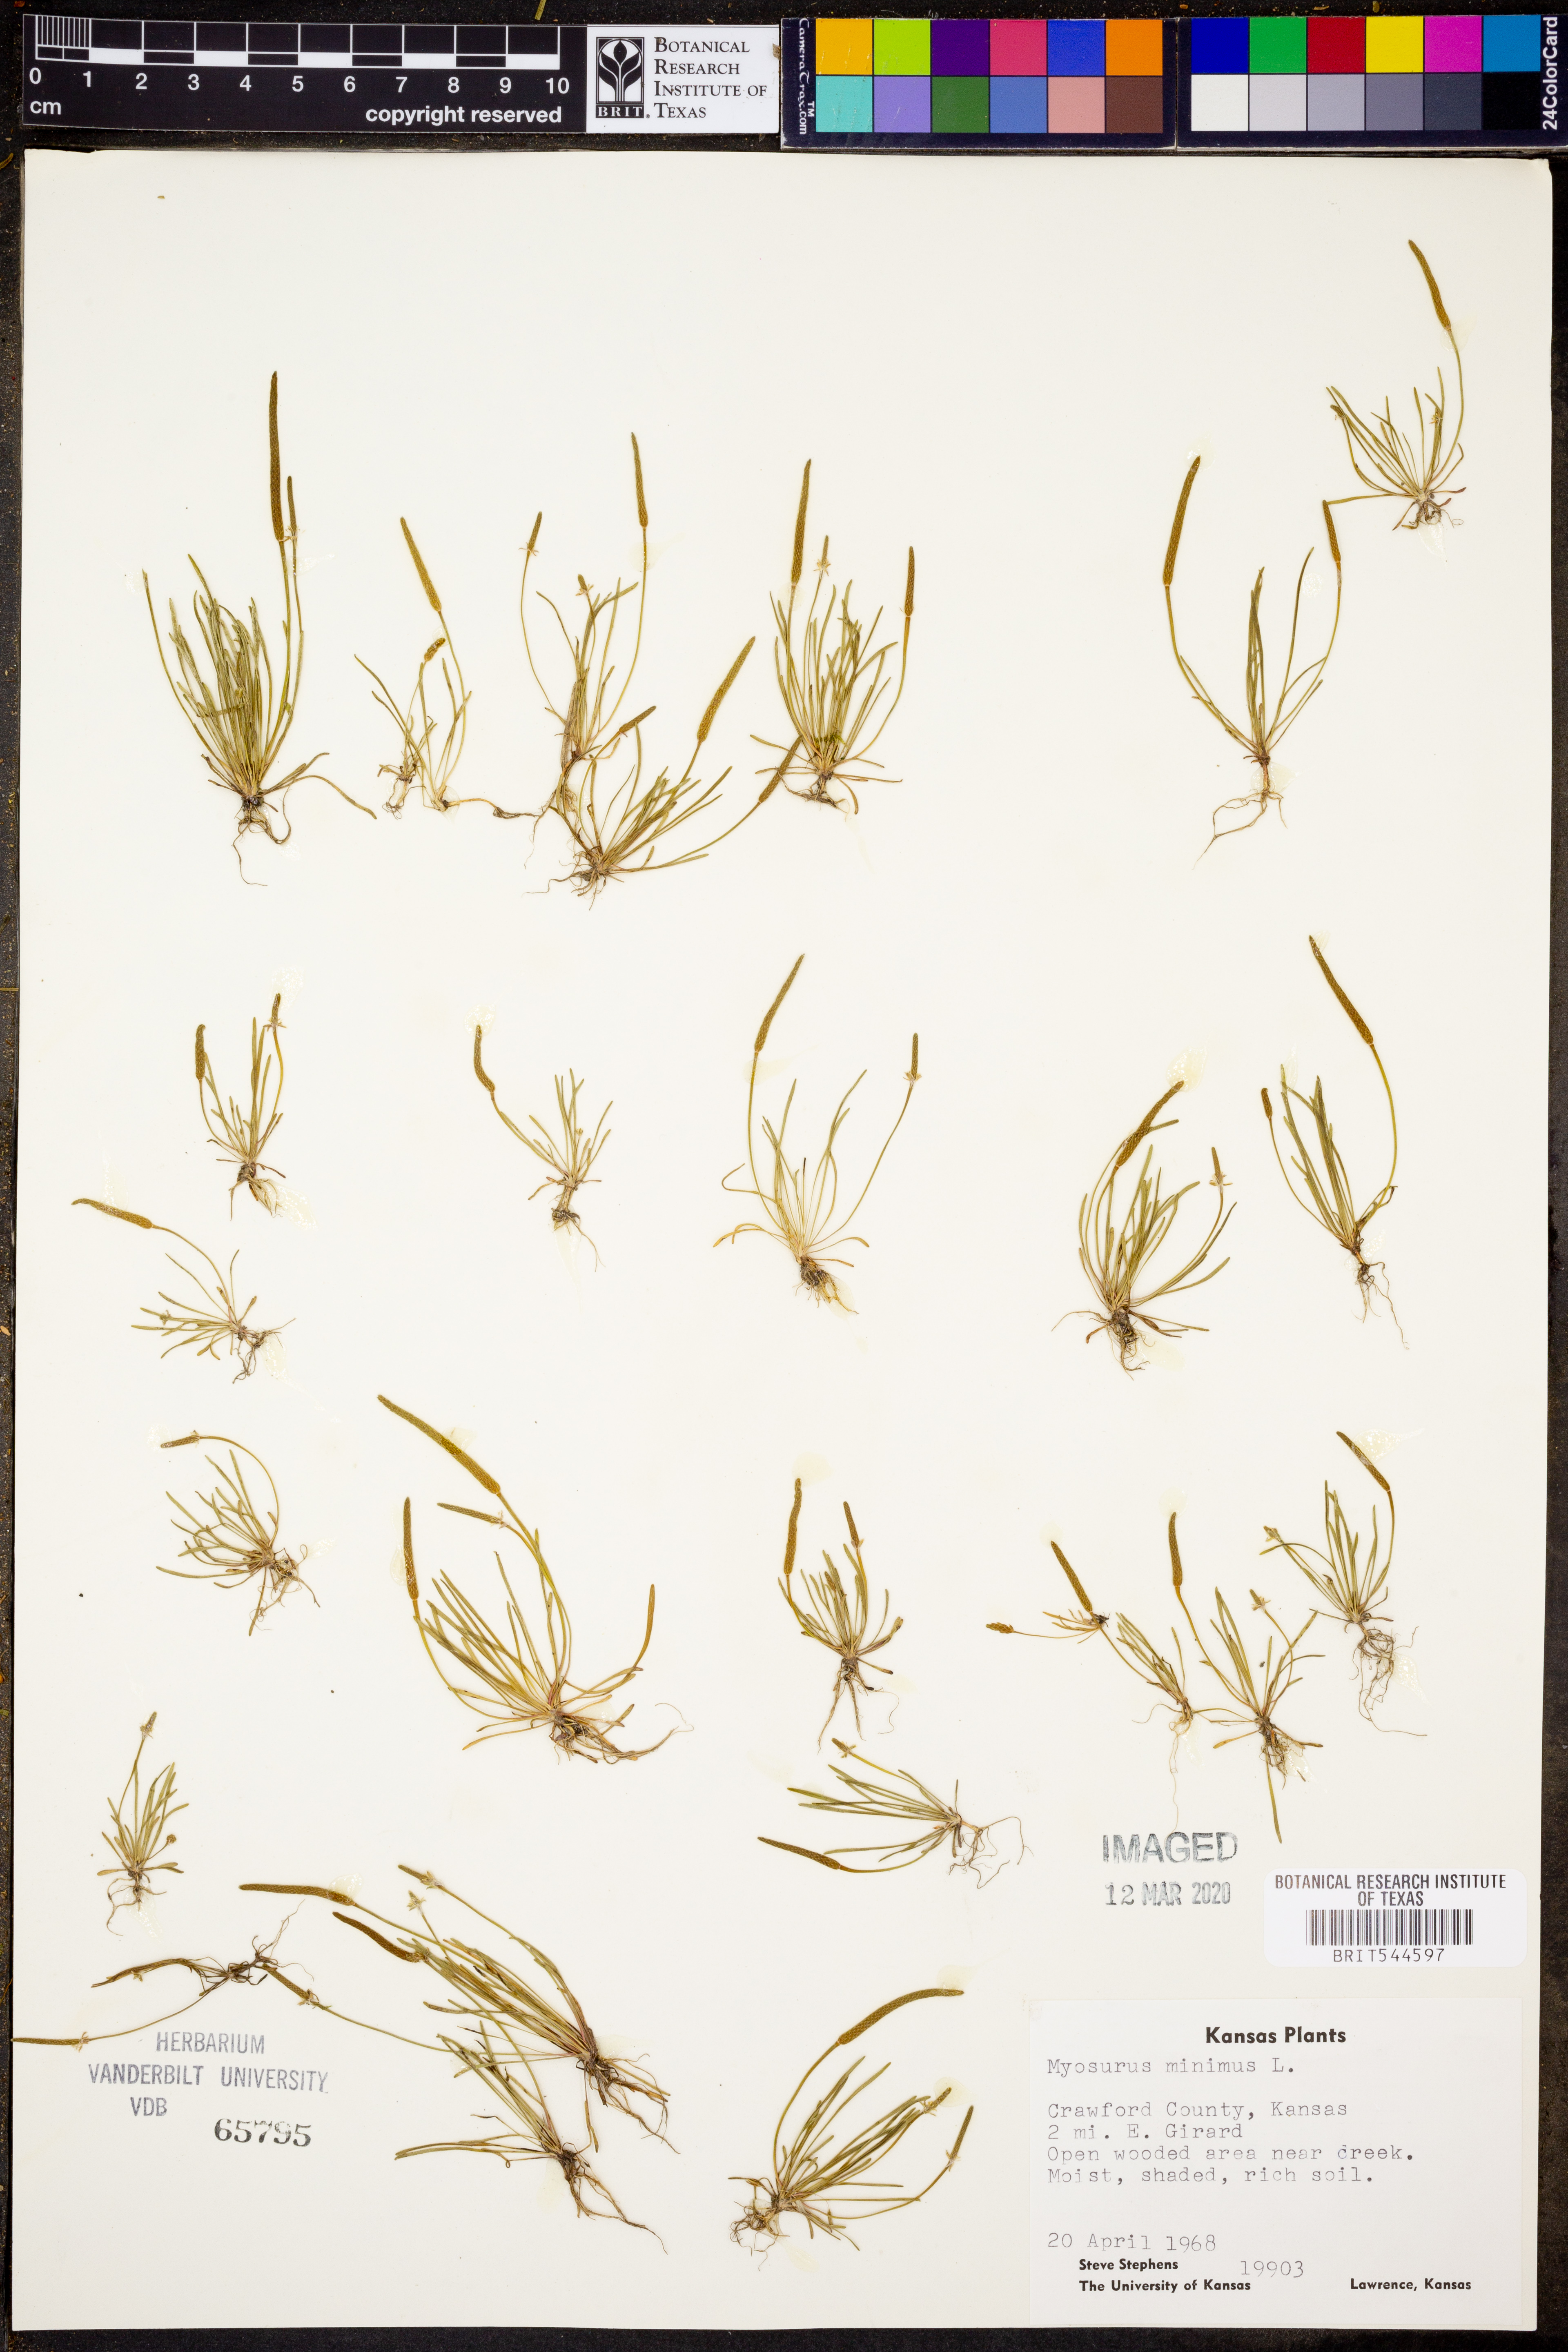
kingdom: Plantae
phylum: Tracheophyta
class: Magnoliopsida
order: Ranunculales
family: Ranunculaceae
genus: Myosurus
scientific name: Myosurus minimus
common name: Mousetail
